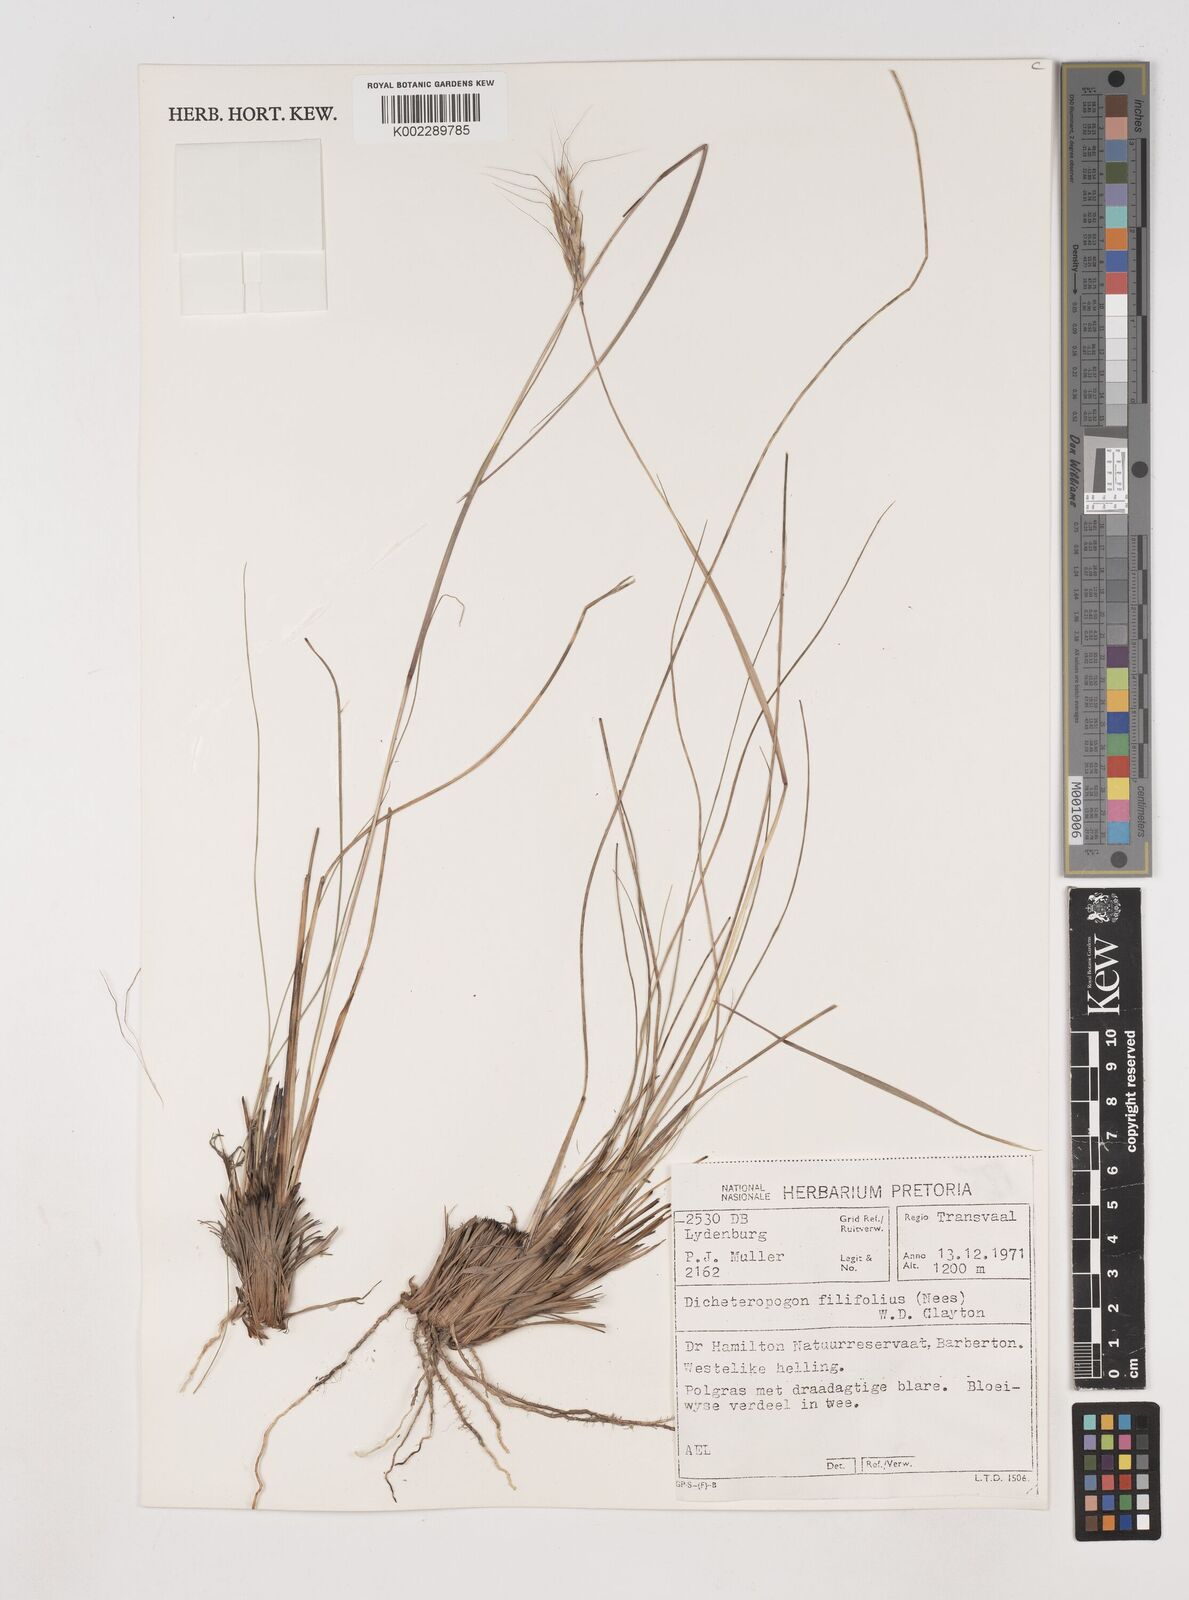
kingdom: Plantae
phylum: Tracheophyta
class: Liliopsida
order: Poales
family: Poaceae
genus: Diheteropogon
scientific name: Diheteropogon filifolius
